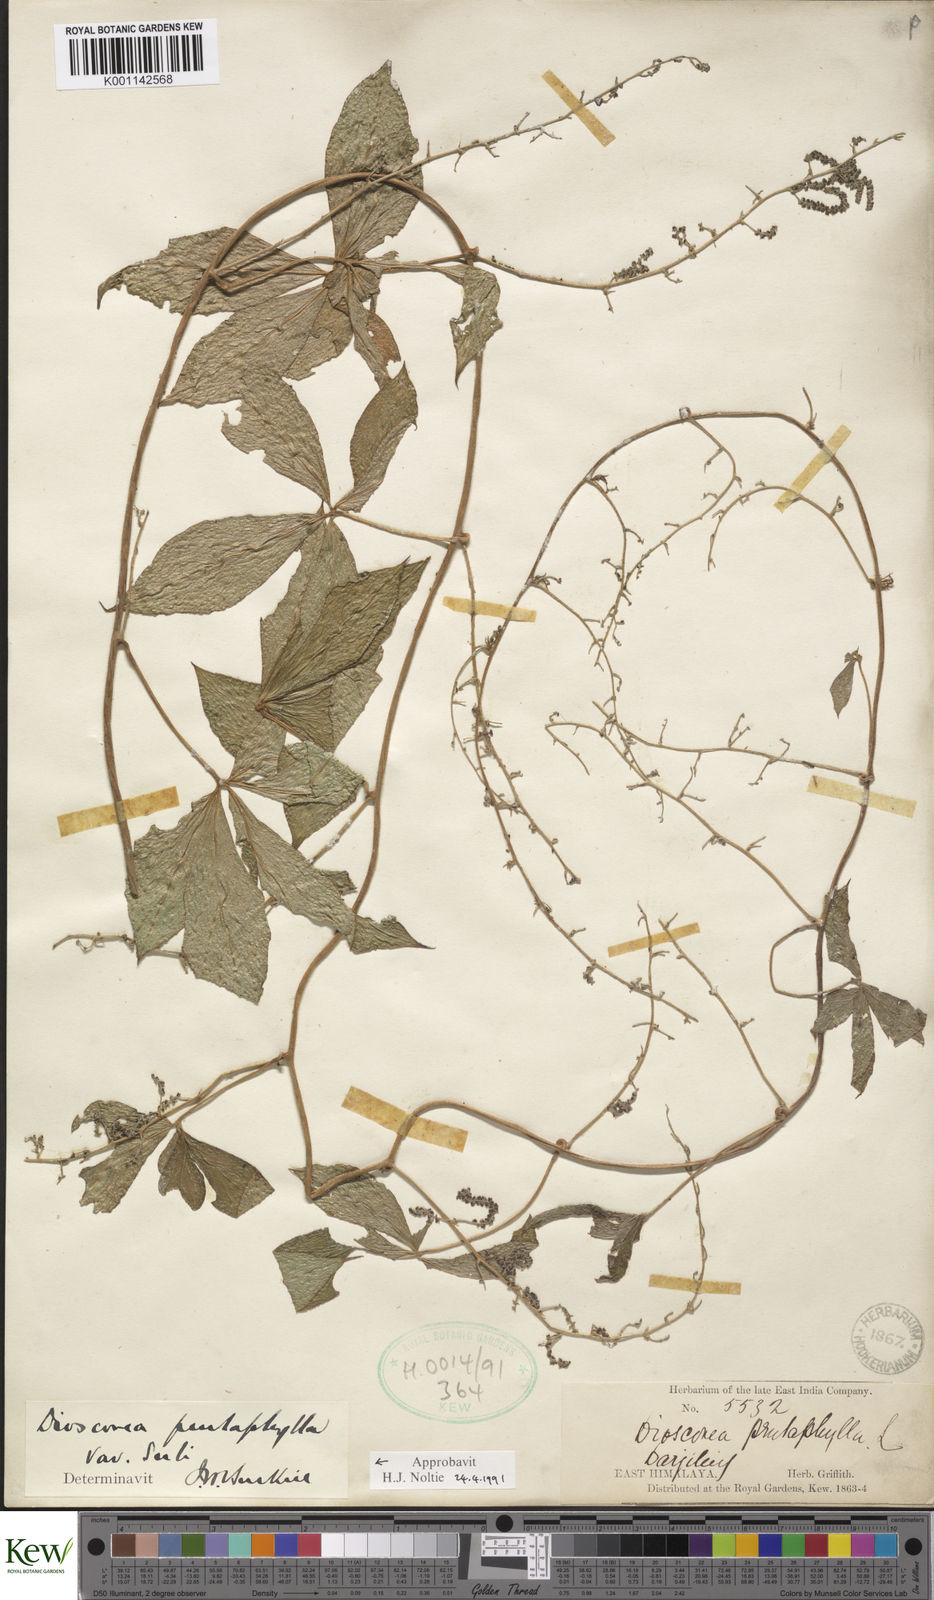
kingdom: Plantae
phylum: Tracheophyta
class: Liliopsida
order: Dioscoreales
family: Dioscoreaceae
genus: Dioscorea
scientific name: Dioscorea pentaphylla
